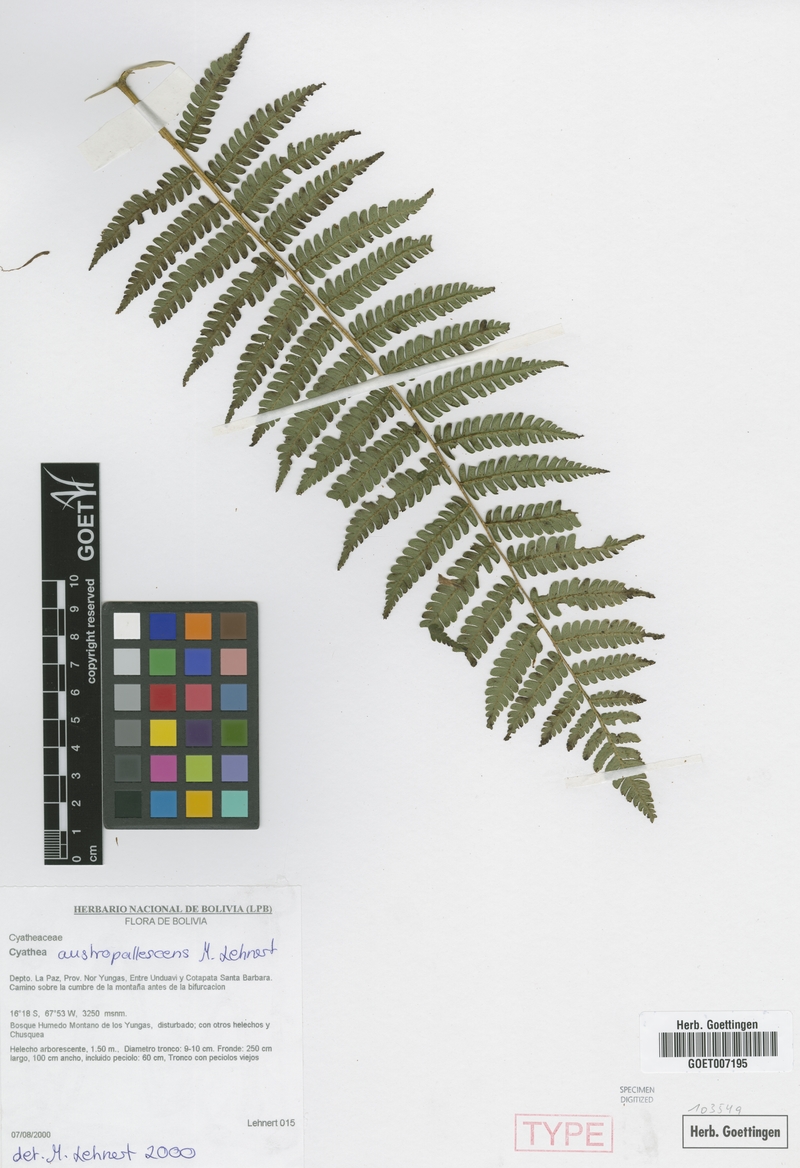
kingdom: Plantae
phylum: Tracheophyta
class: Polypodiopsida
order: Cyatheales
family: Cyatheaceae
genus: Cyathea
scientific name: Cyathea austropallescens
